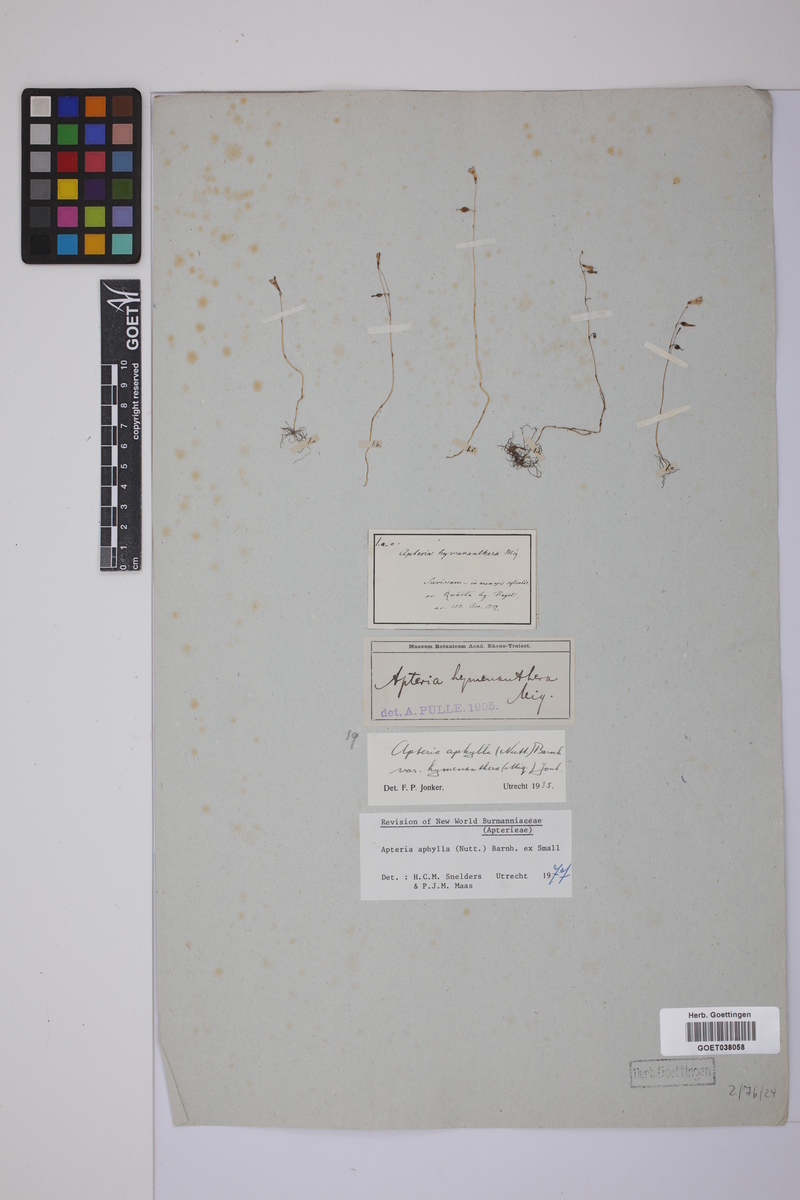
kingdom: Plantae
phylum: Tracheophyta
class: Liliopsida
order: Dioscoreales
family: Burmanniaceae
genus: Apteria
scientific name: Apteria aphylla
